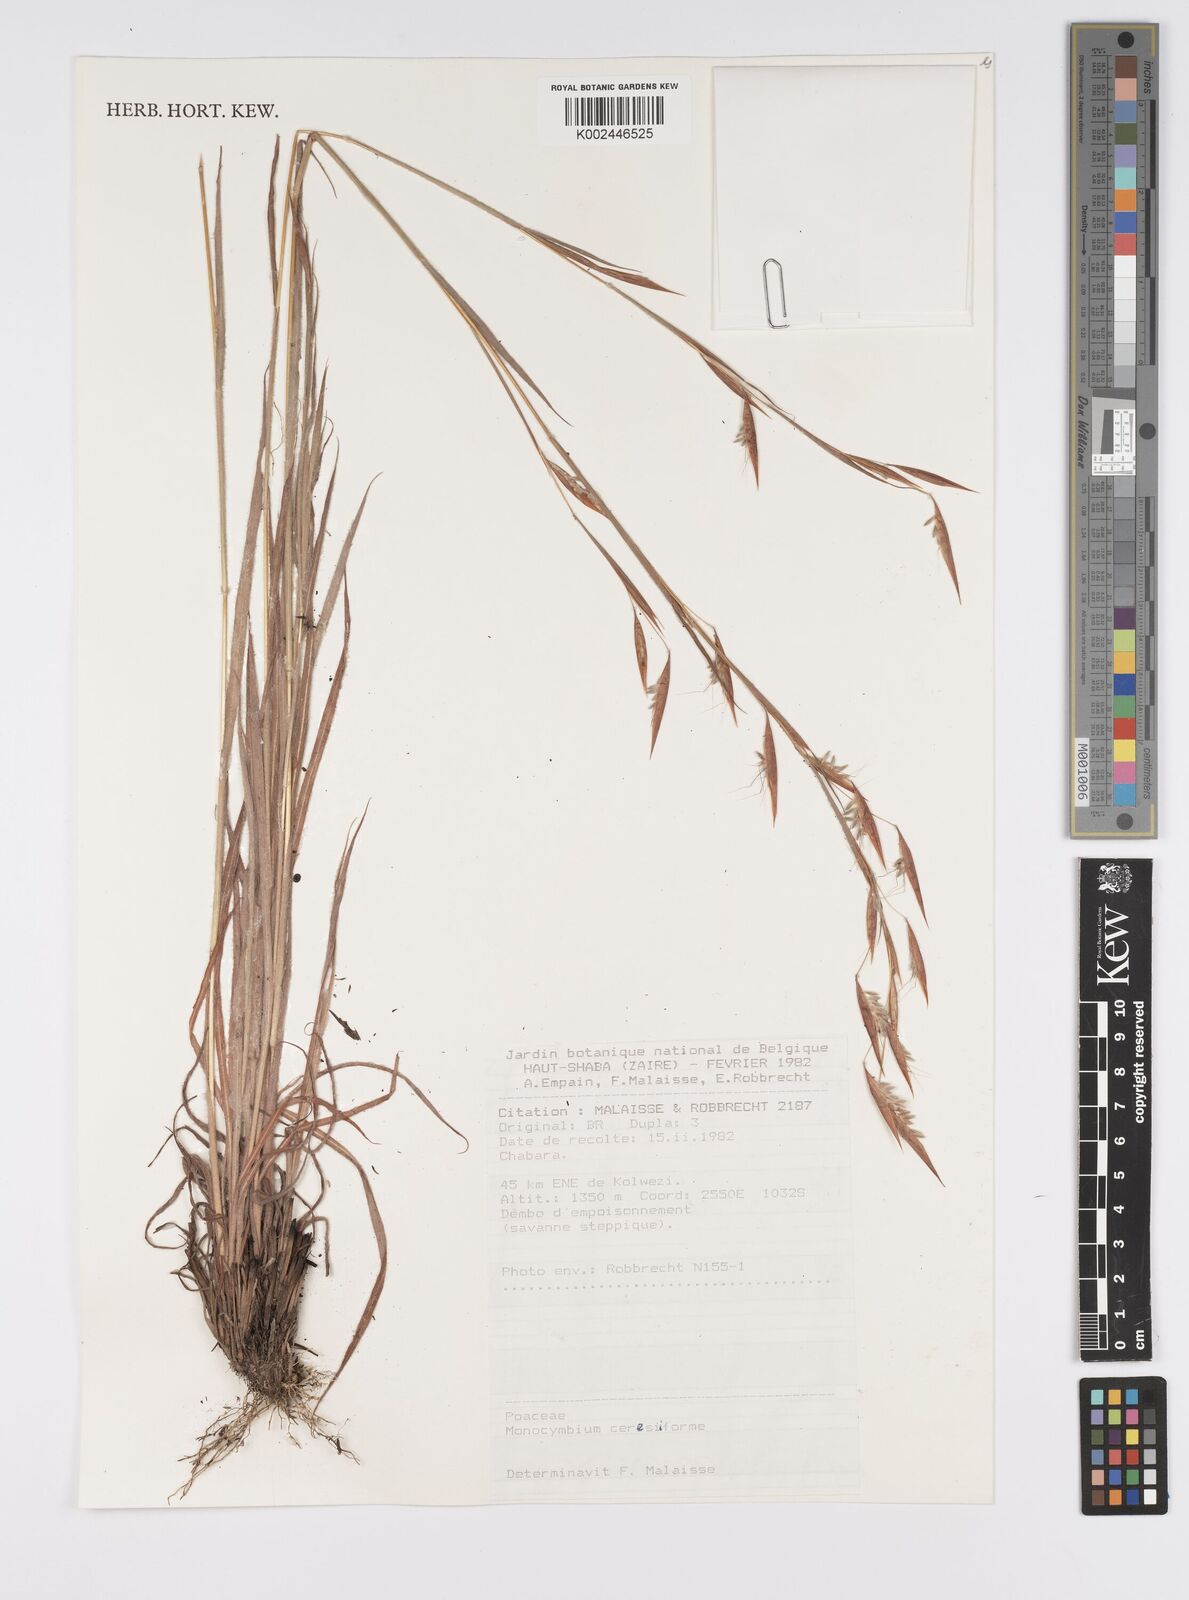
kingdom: Plantae
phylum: Tracheophyta
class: Liliopsida
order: Poales
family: Poaceae
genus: Monocymbium
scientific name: Monocymbium ceresiiforme
